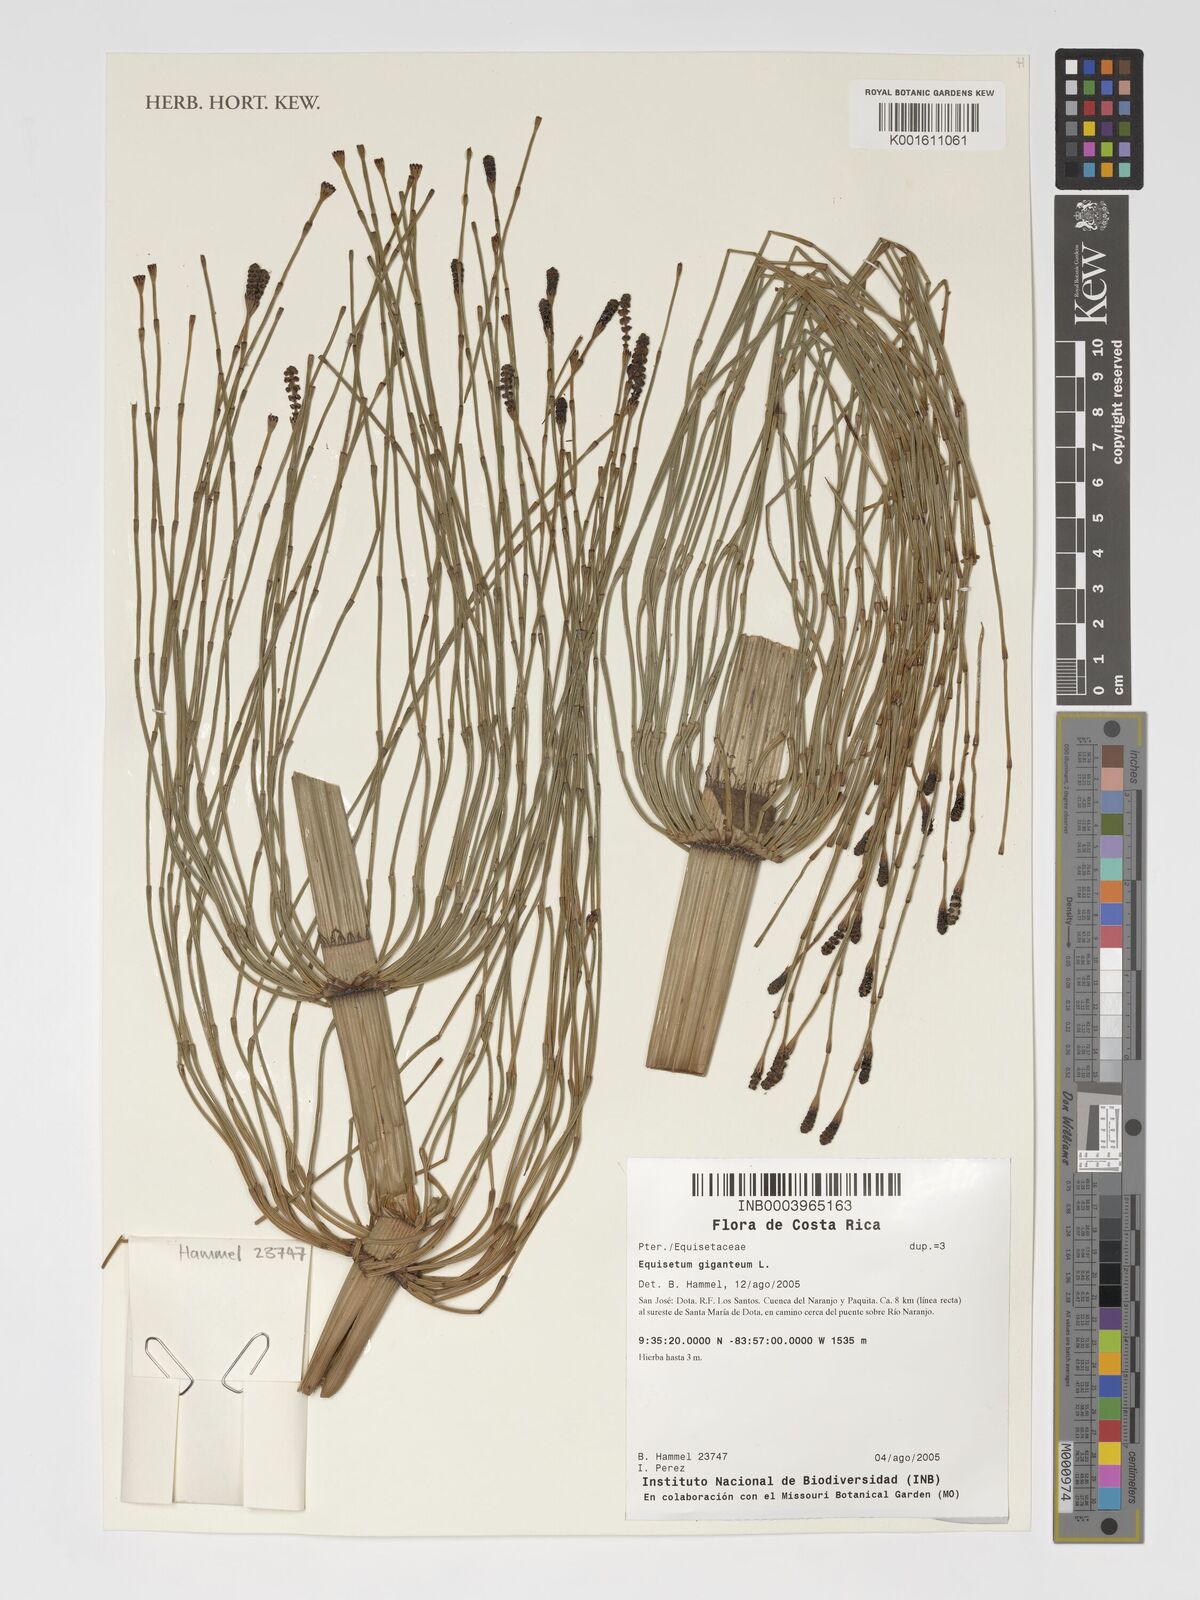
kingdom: Plantae
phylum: Tracheophyta
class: Polypodiopsida
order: Equisetales
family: Equisetaceae
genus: Equisetum
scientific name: Equisetum giganteum
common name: Giant horsetail
